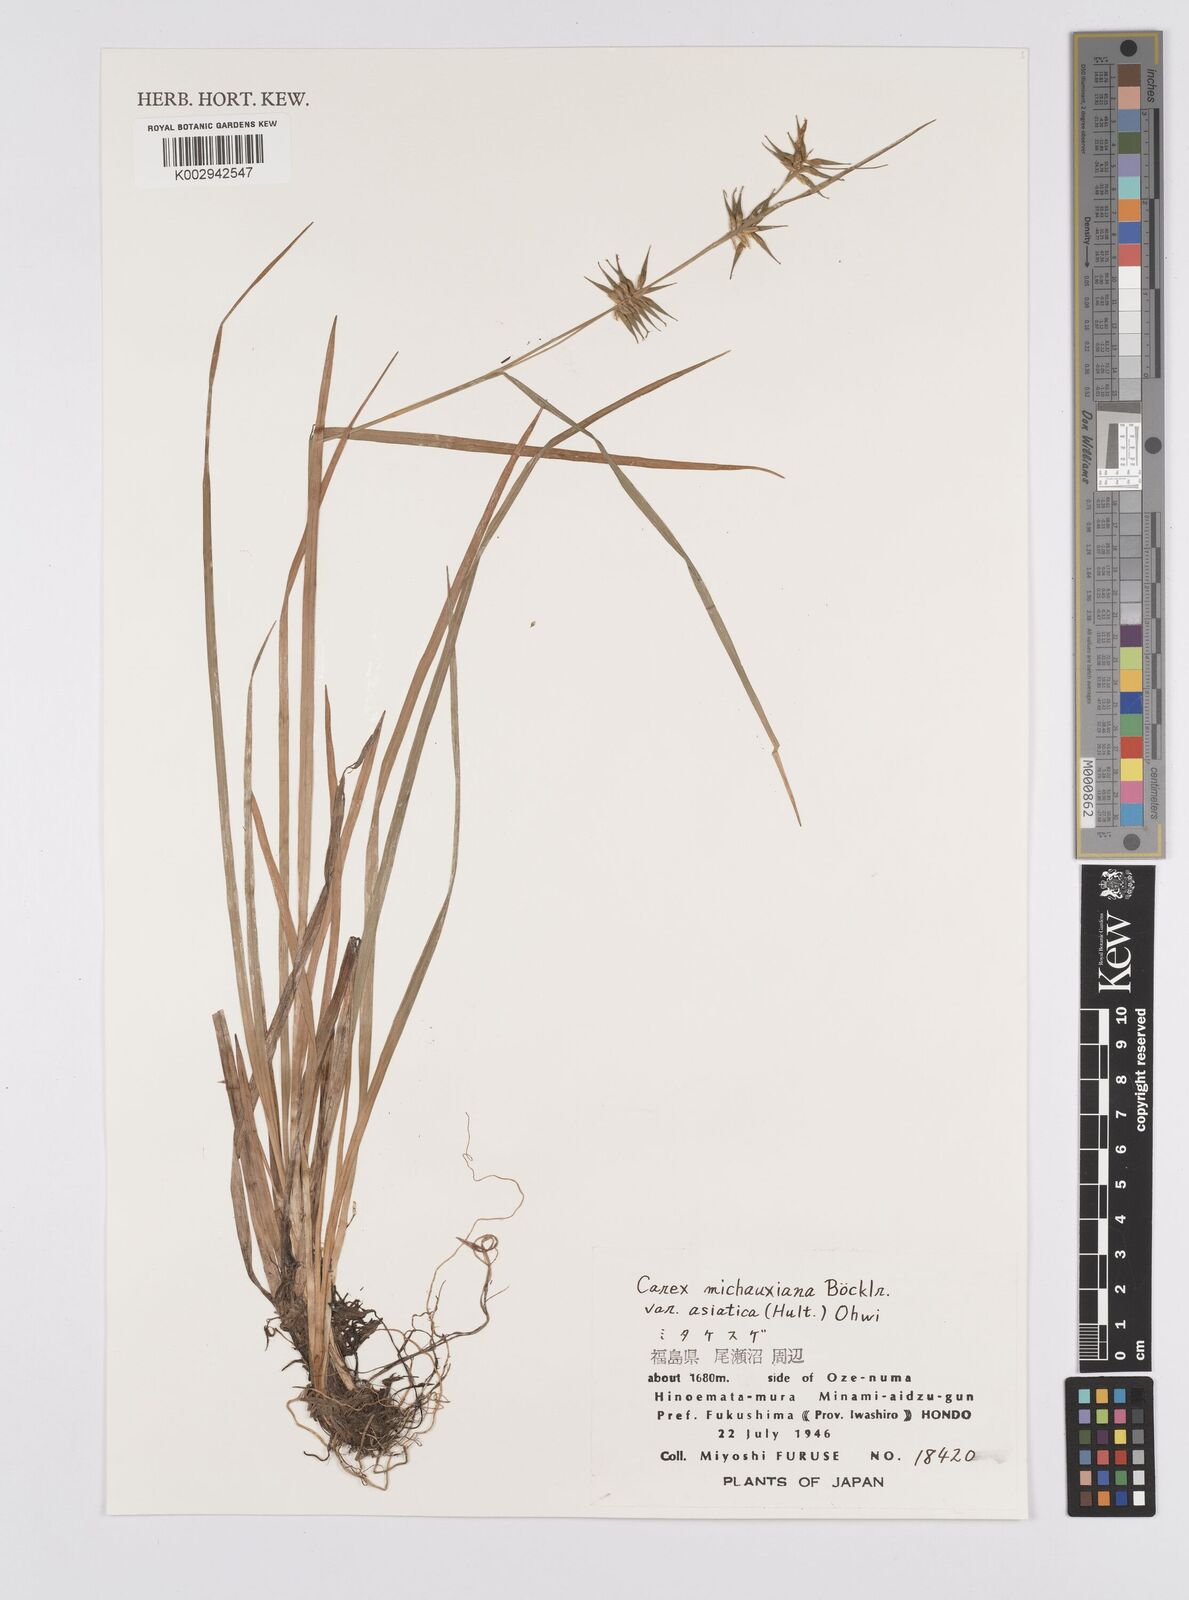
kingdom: Plantae
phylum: Tracheophyta
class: Liliopsida
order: Poales
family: Cyperaceae
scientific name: Cyperaceae
